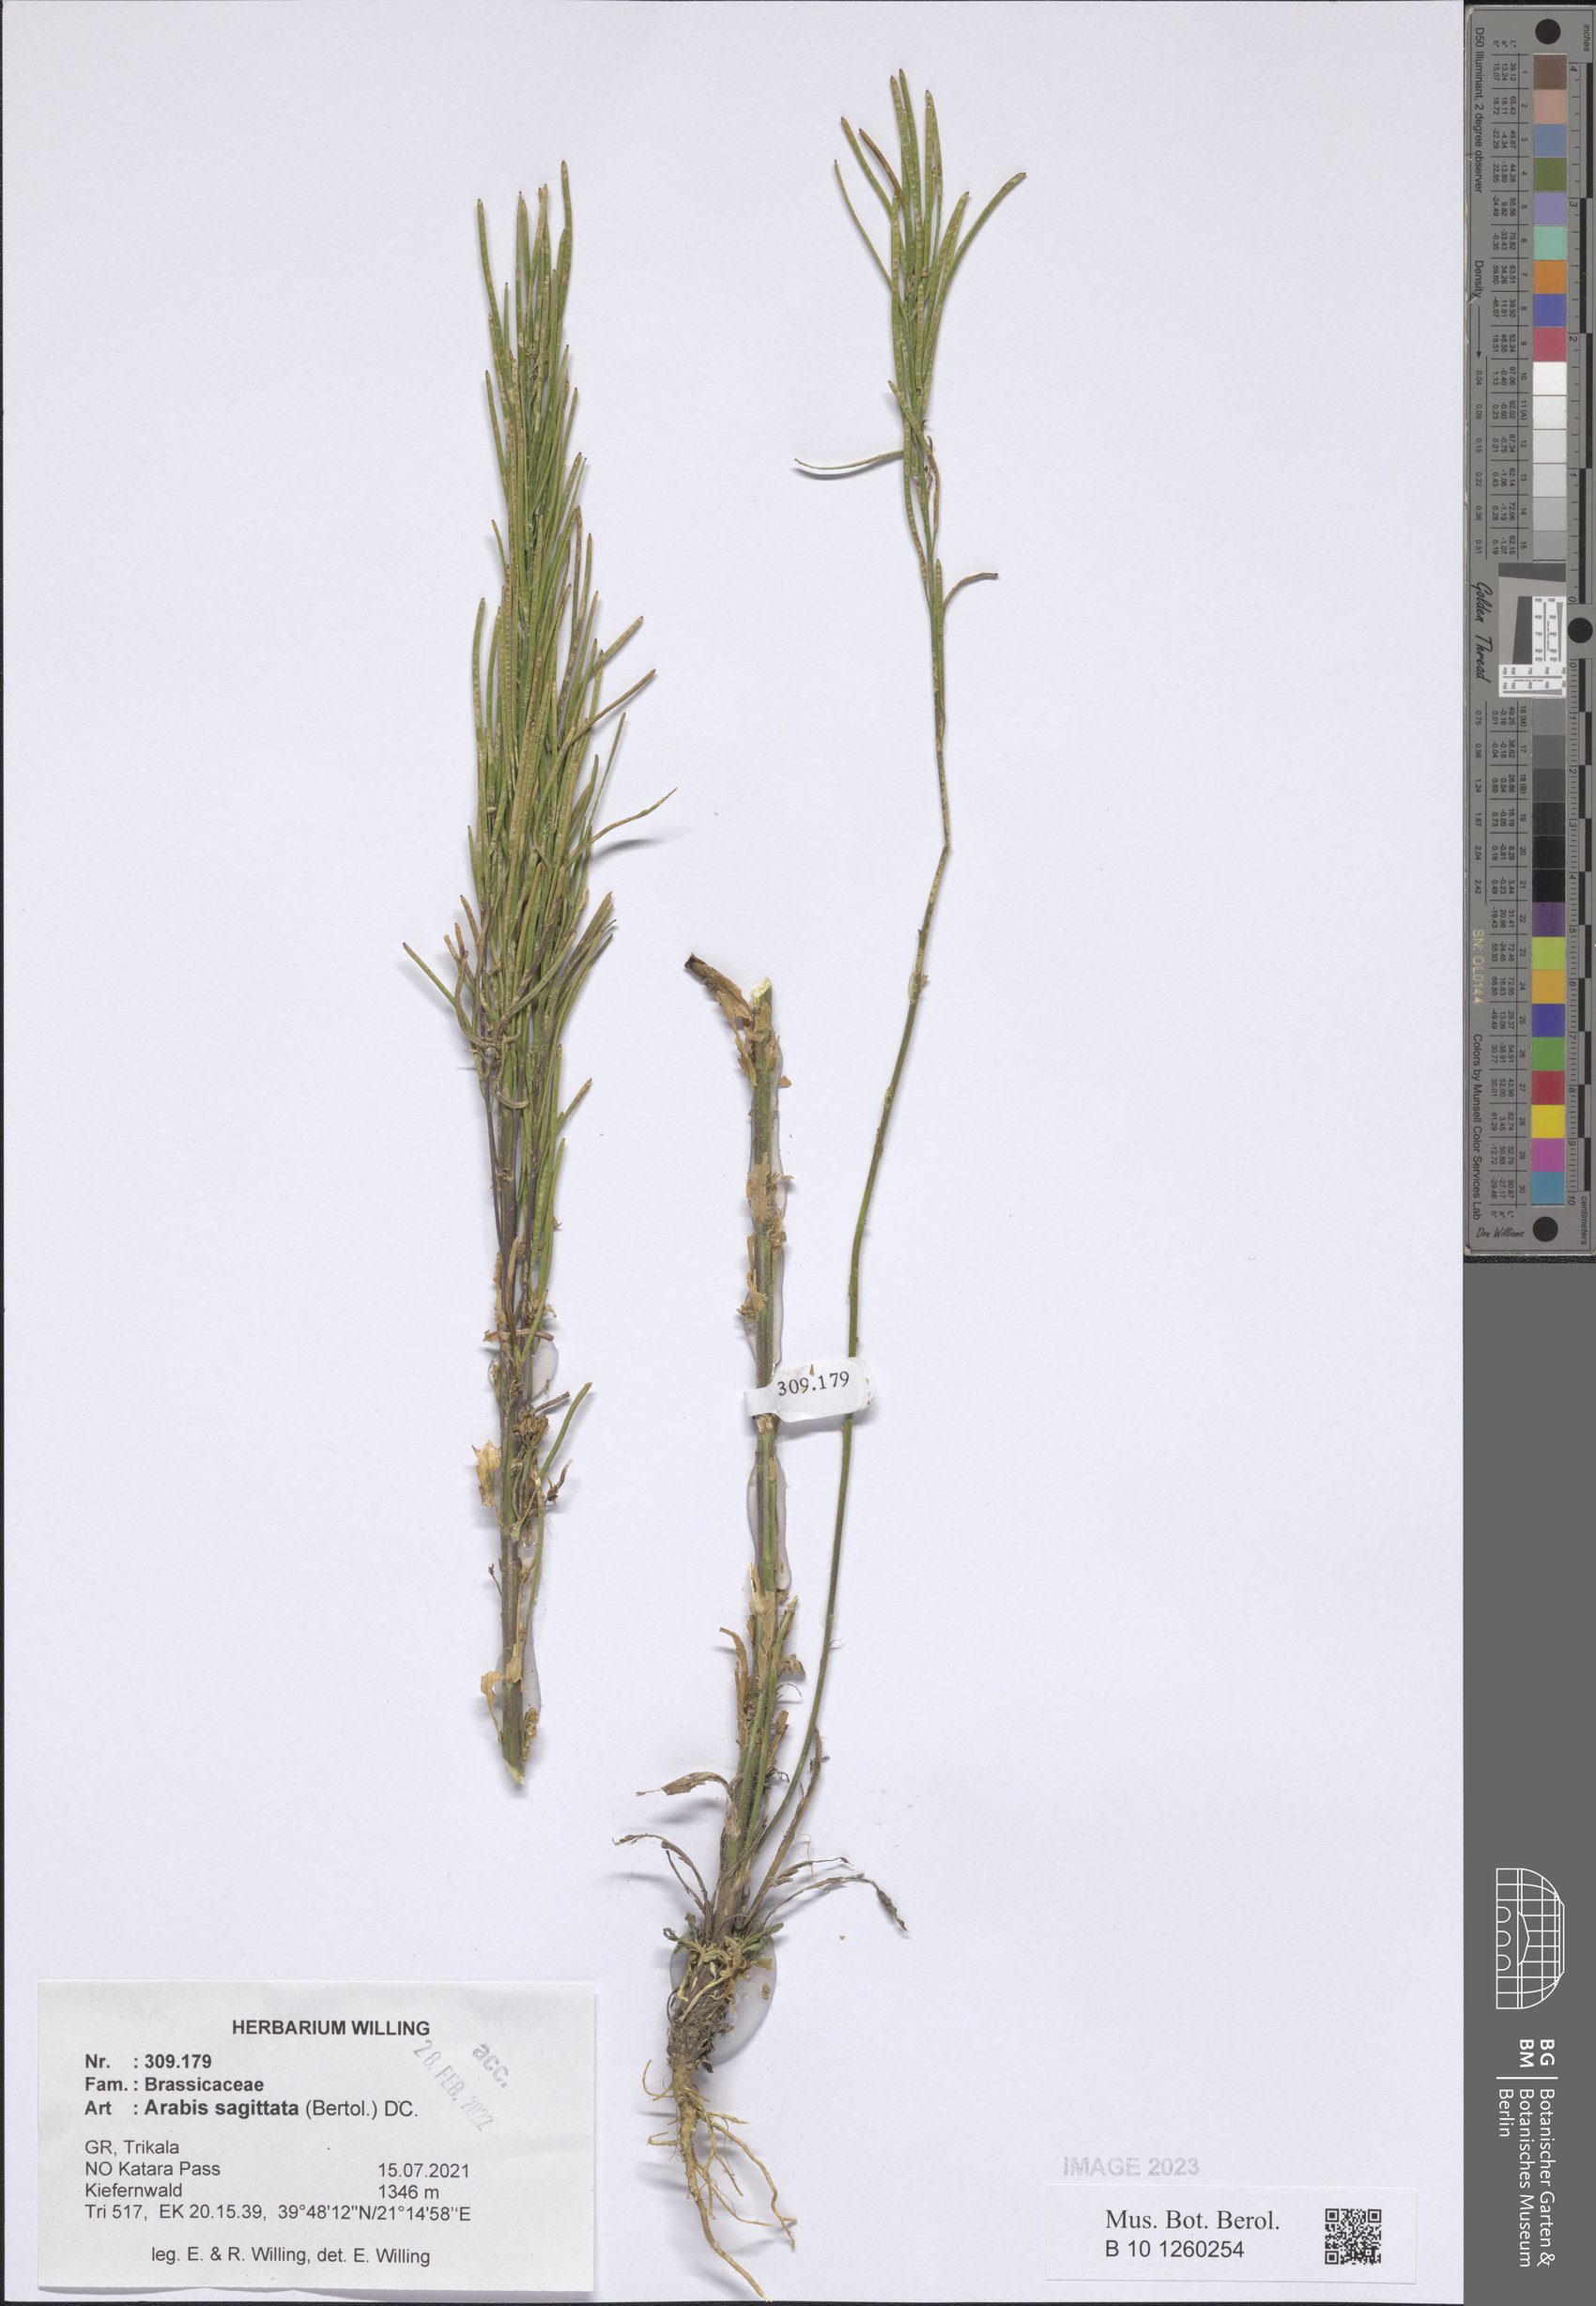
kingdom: Plantae
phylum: Tracheophyta
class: Magnoliopsida
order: Brassicales
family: Brassicaceae
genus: Arabis
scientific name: Arabis sagittata
